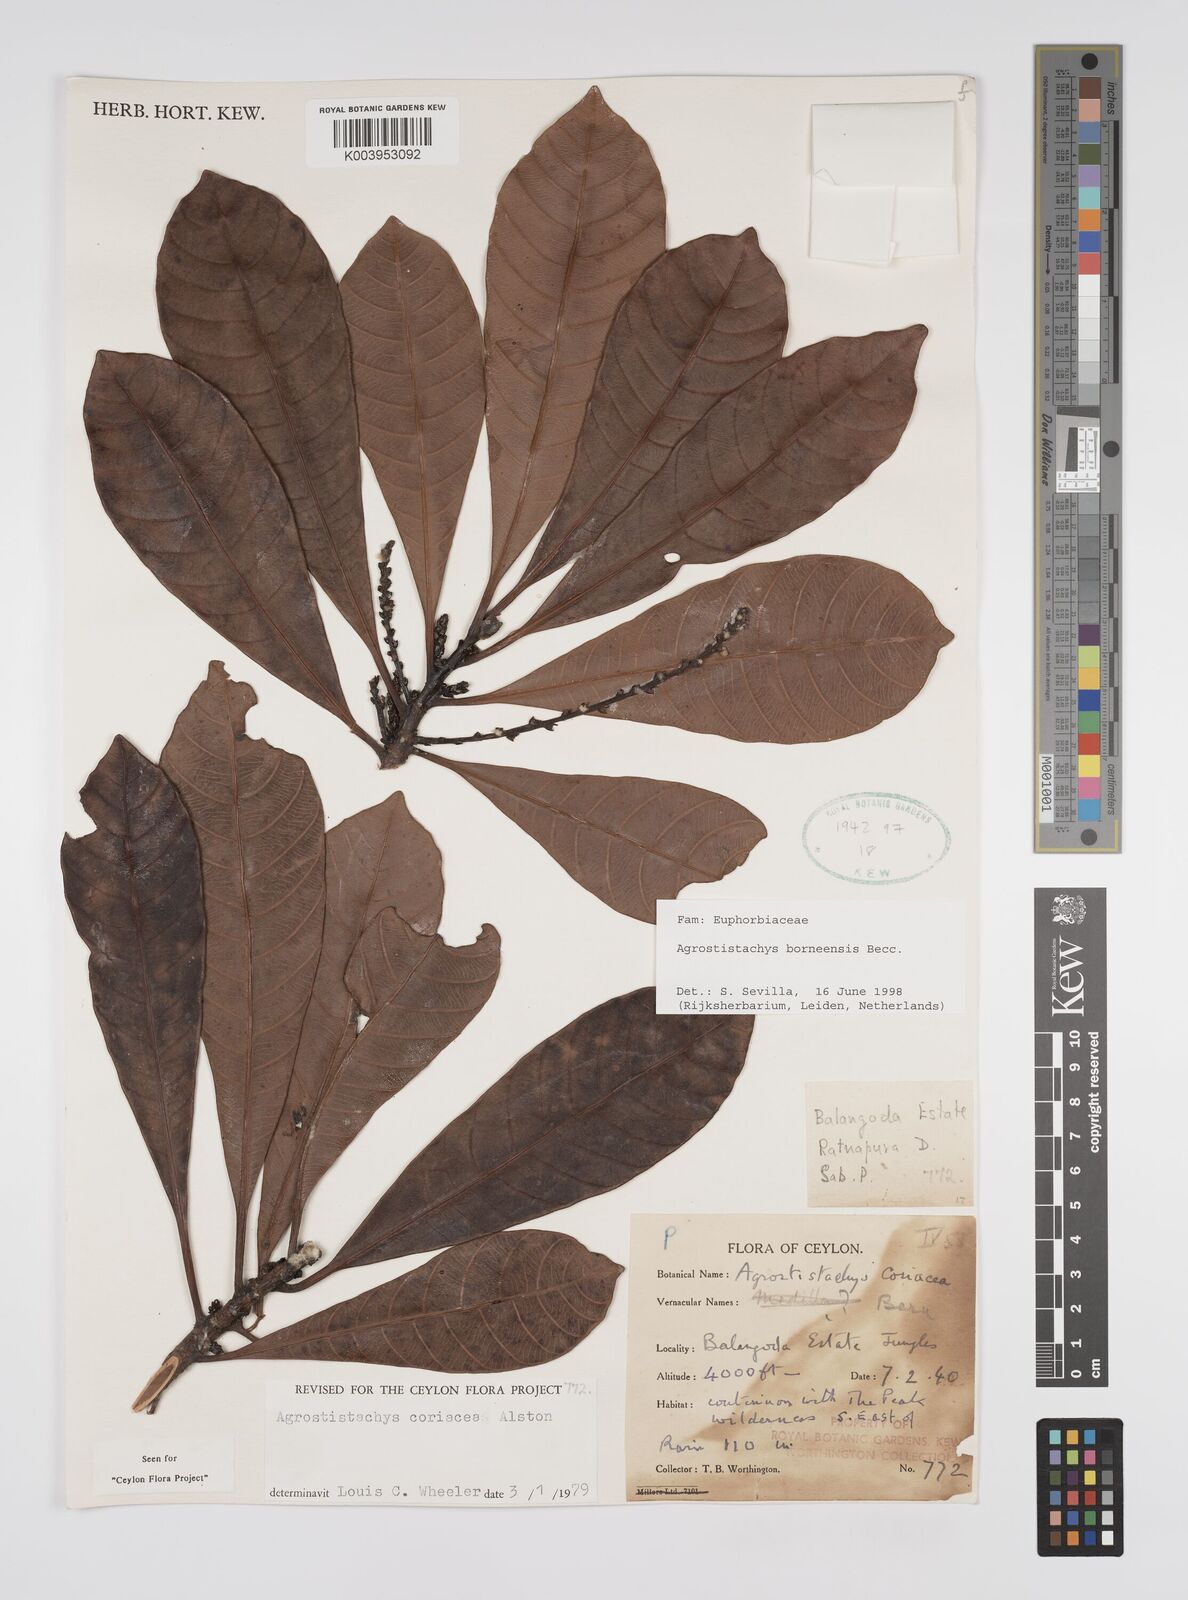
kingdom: Plantae
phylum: Tracheophyta
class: Magnoliopsida
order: Malpighiales
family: Euphorbiaceae
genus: Agrostistachys
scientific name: Agrostistachys borneensis
